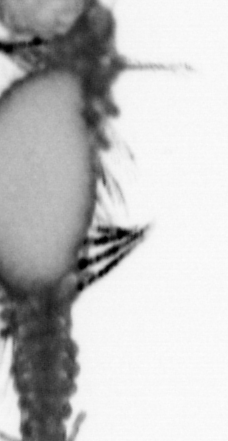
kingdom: Animalia
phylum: Annelida
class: Polychaeta
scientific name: Polychaeta
